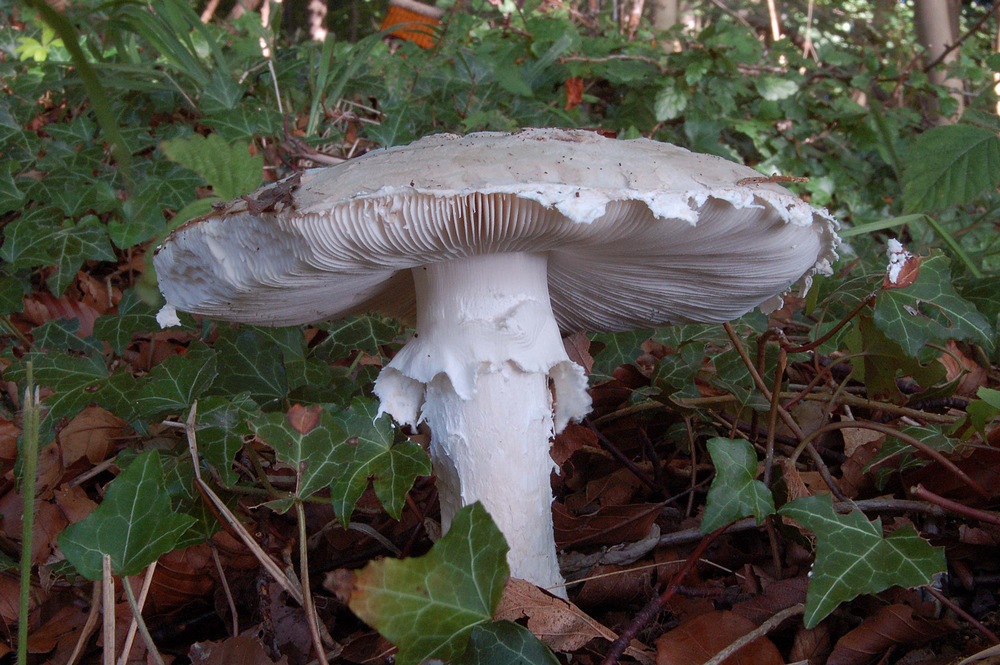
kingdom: Fungi
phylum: Basidiomycota
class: Agaricomycetes
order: Agaricales
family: Amanitaceae
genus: Amanita
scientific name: Amanita
